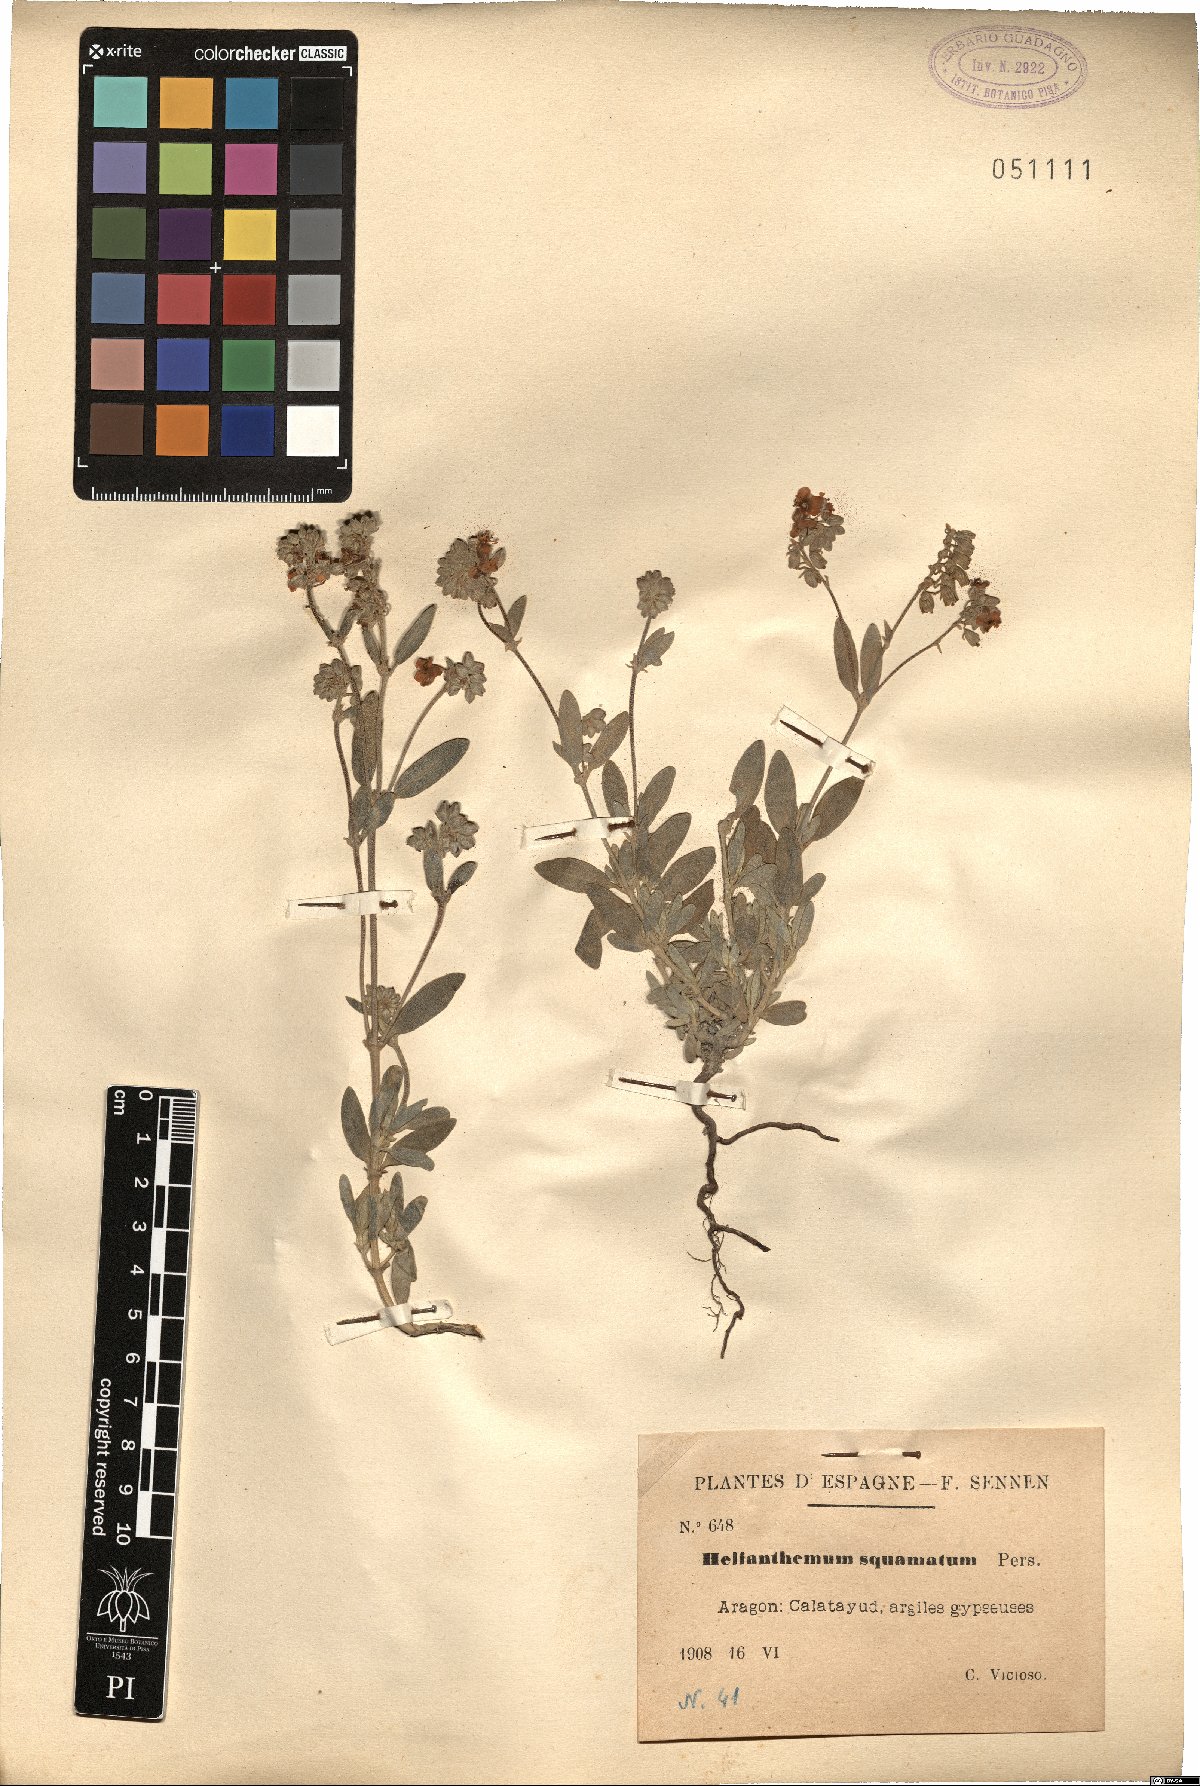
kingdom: Plantae
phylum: Tracheophyta
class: Magnoliopsida
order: Malvales
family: Cistaceae
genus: Helianthemum
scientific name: Helianthemum squamatum
